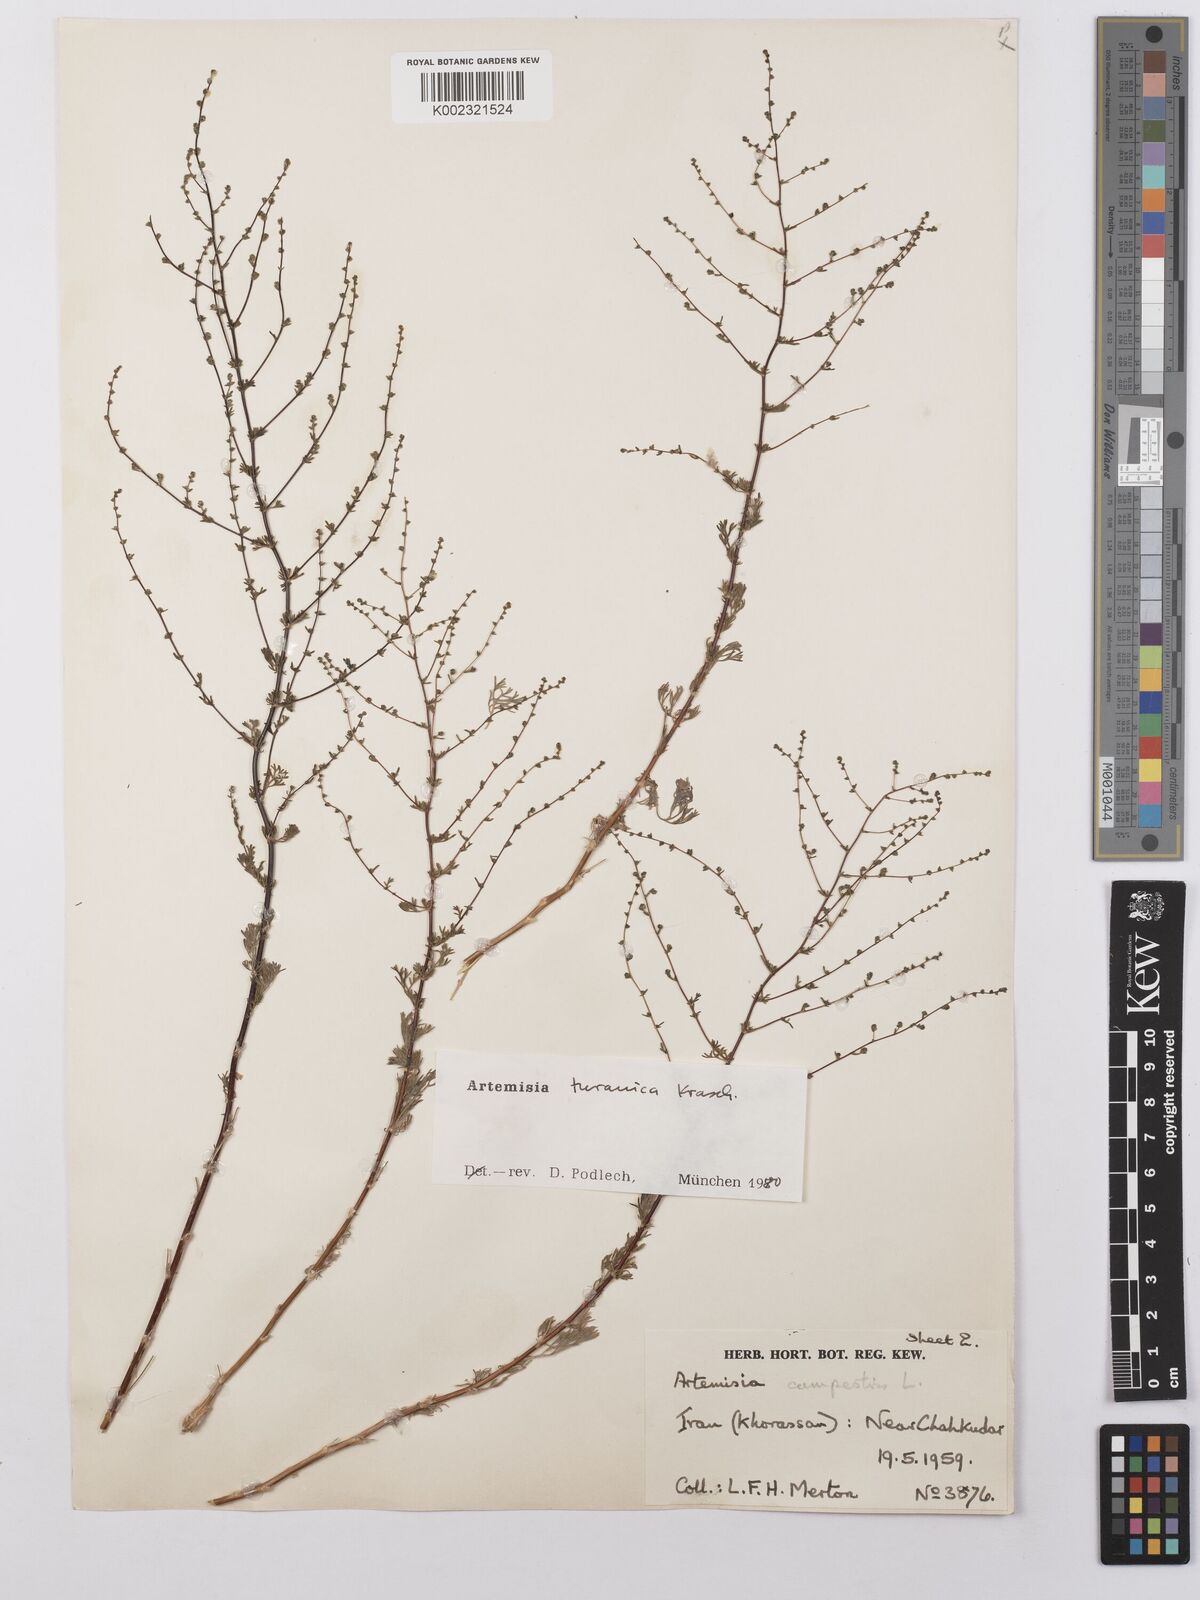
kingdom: Plantae
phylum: Tracheophyta
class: Magnoliopsida
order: Asterales
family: Asteraceae
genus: Artemisia
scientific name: Artemisia turanica
